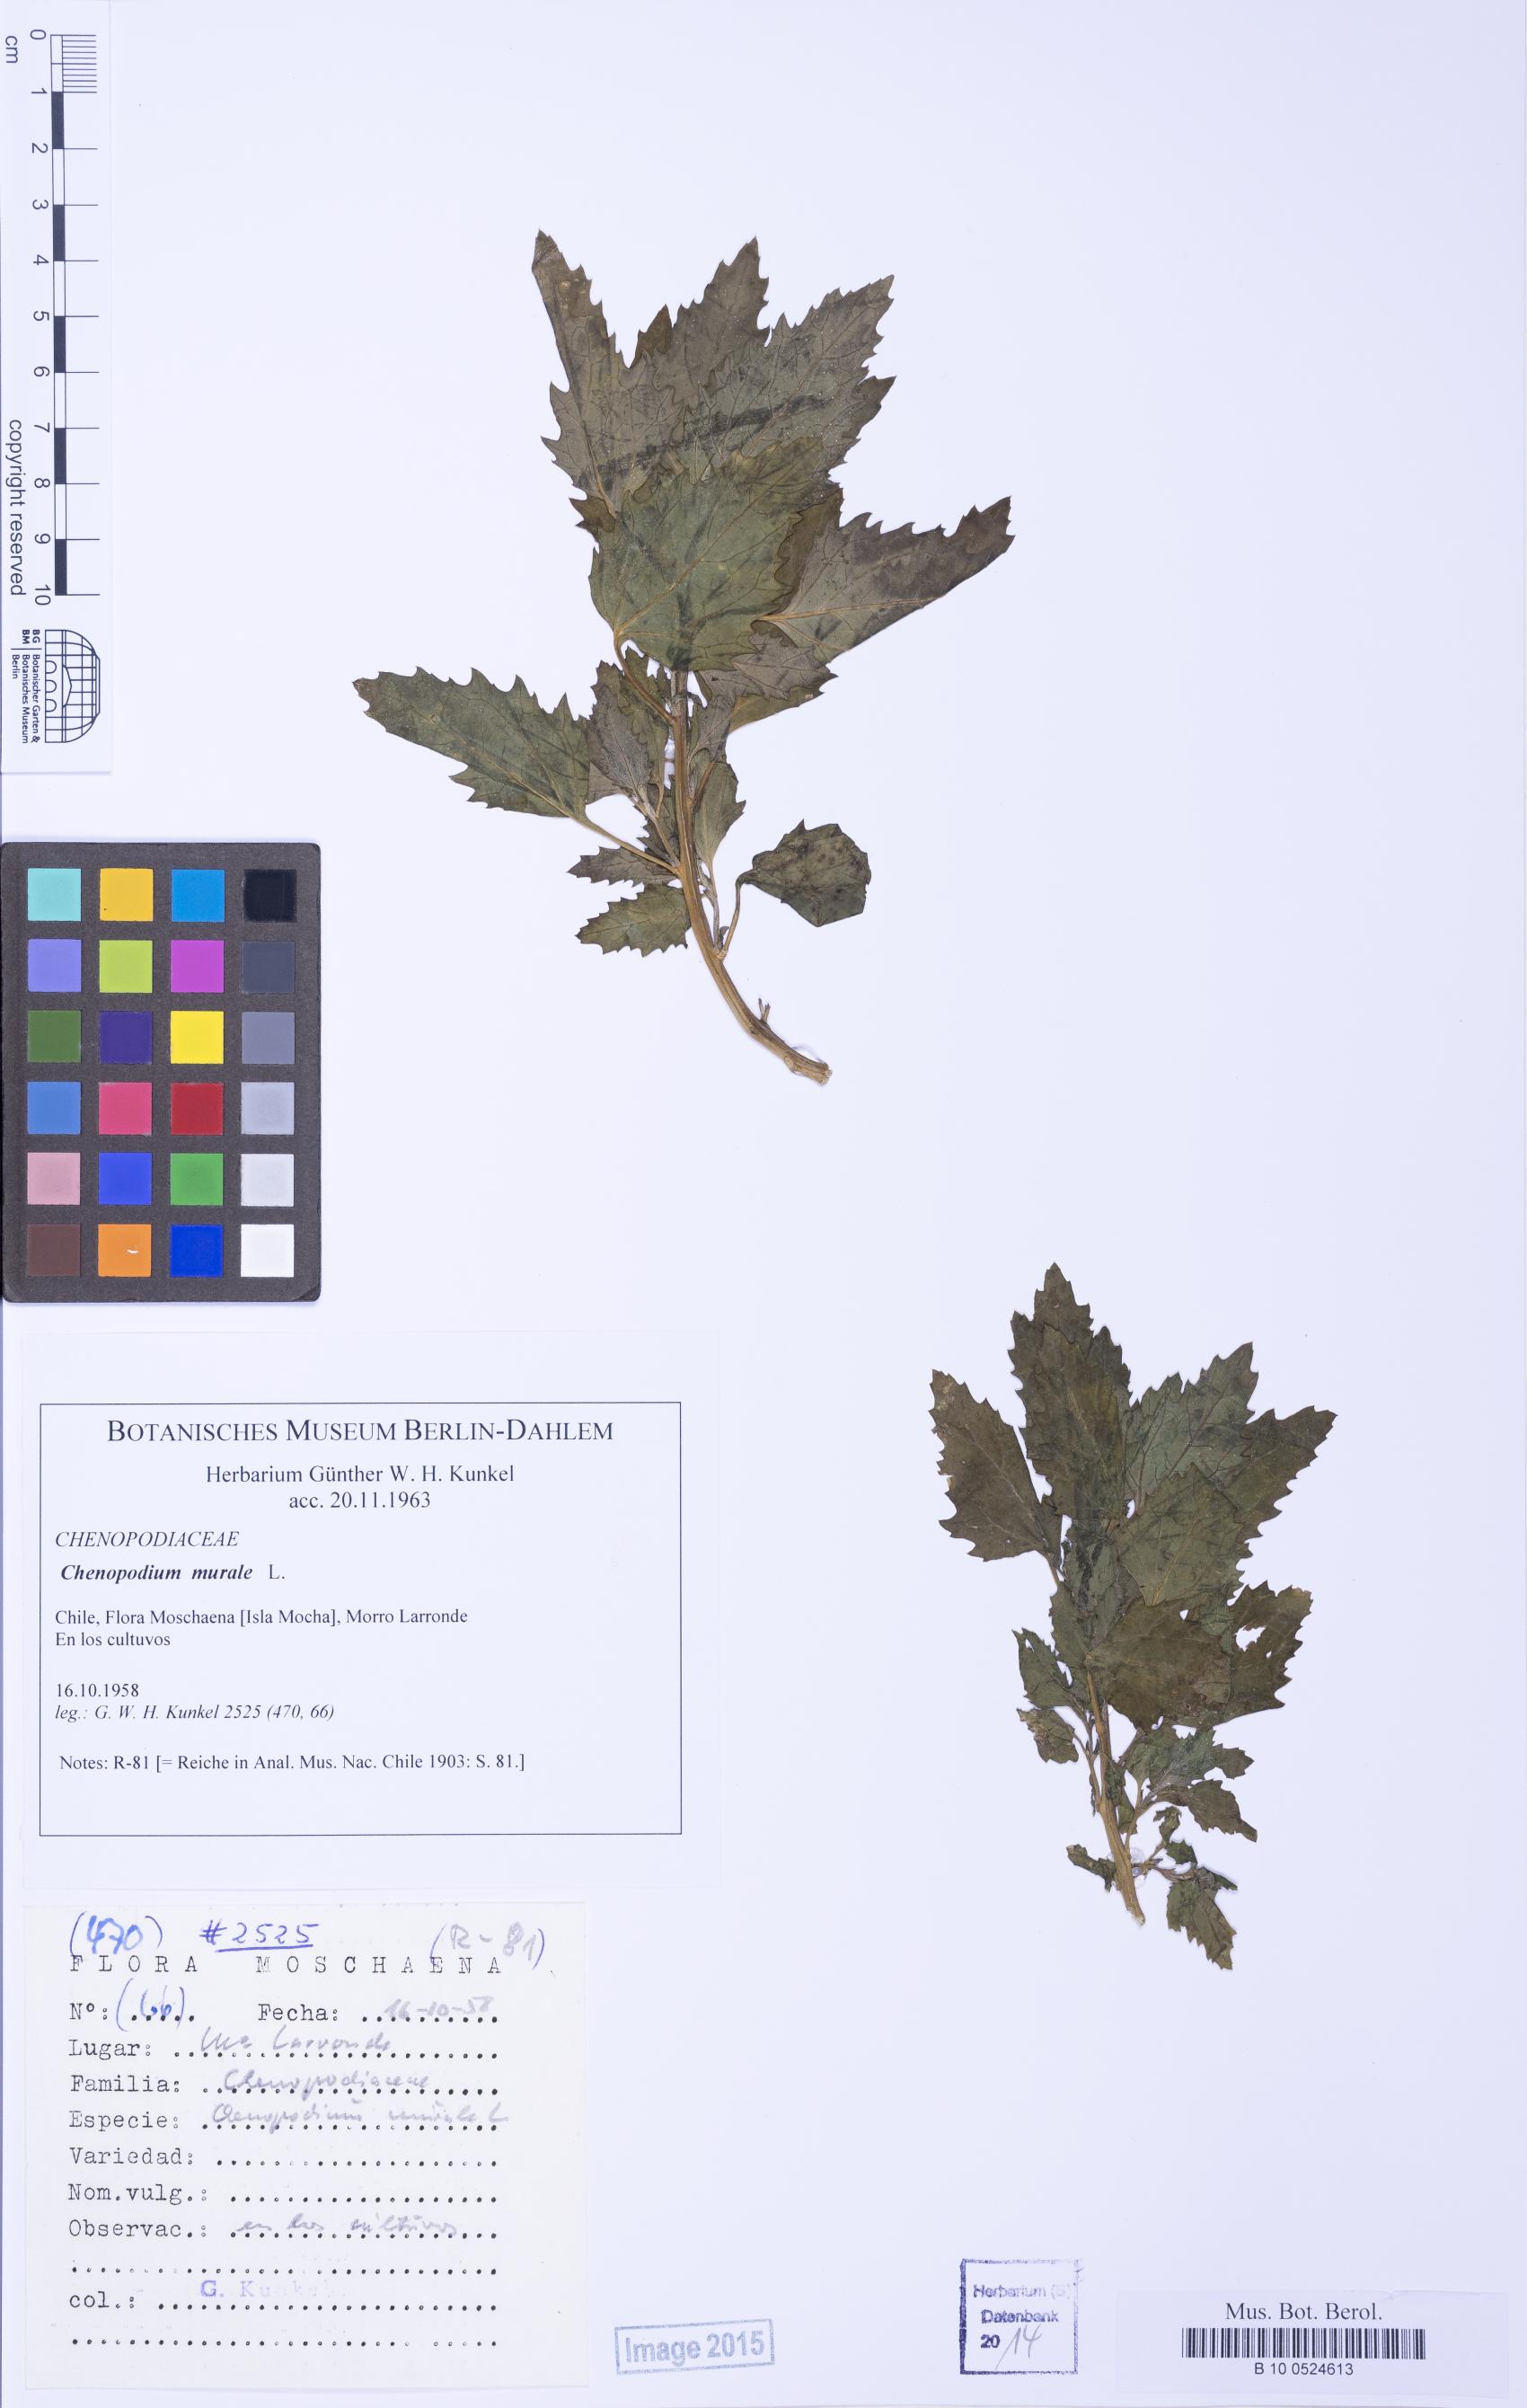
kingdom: Plantae
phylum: Tracheophyta
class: Magnoliopsida
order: Caryophyllales
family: Amaranthaceae
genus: Chenopodiastrum
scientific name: Chenopodiastrum murale
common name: Sowbane
